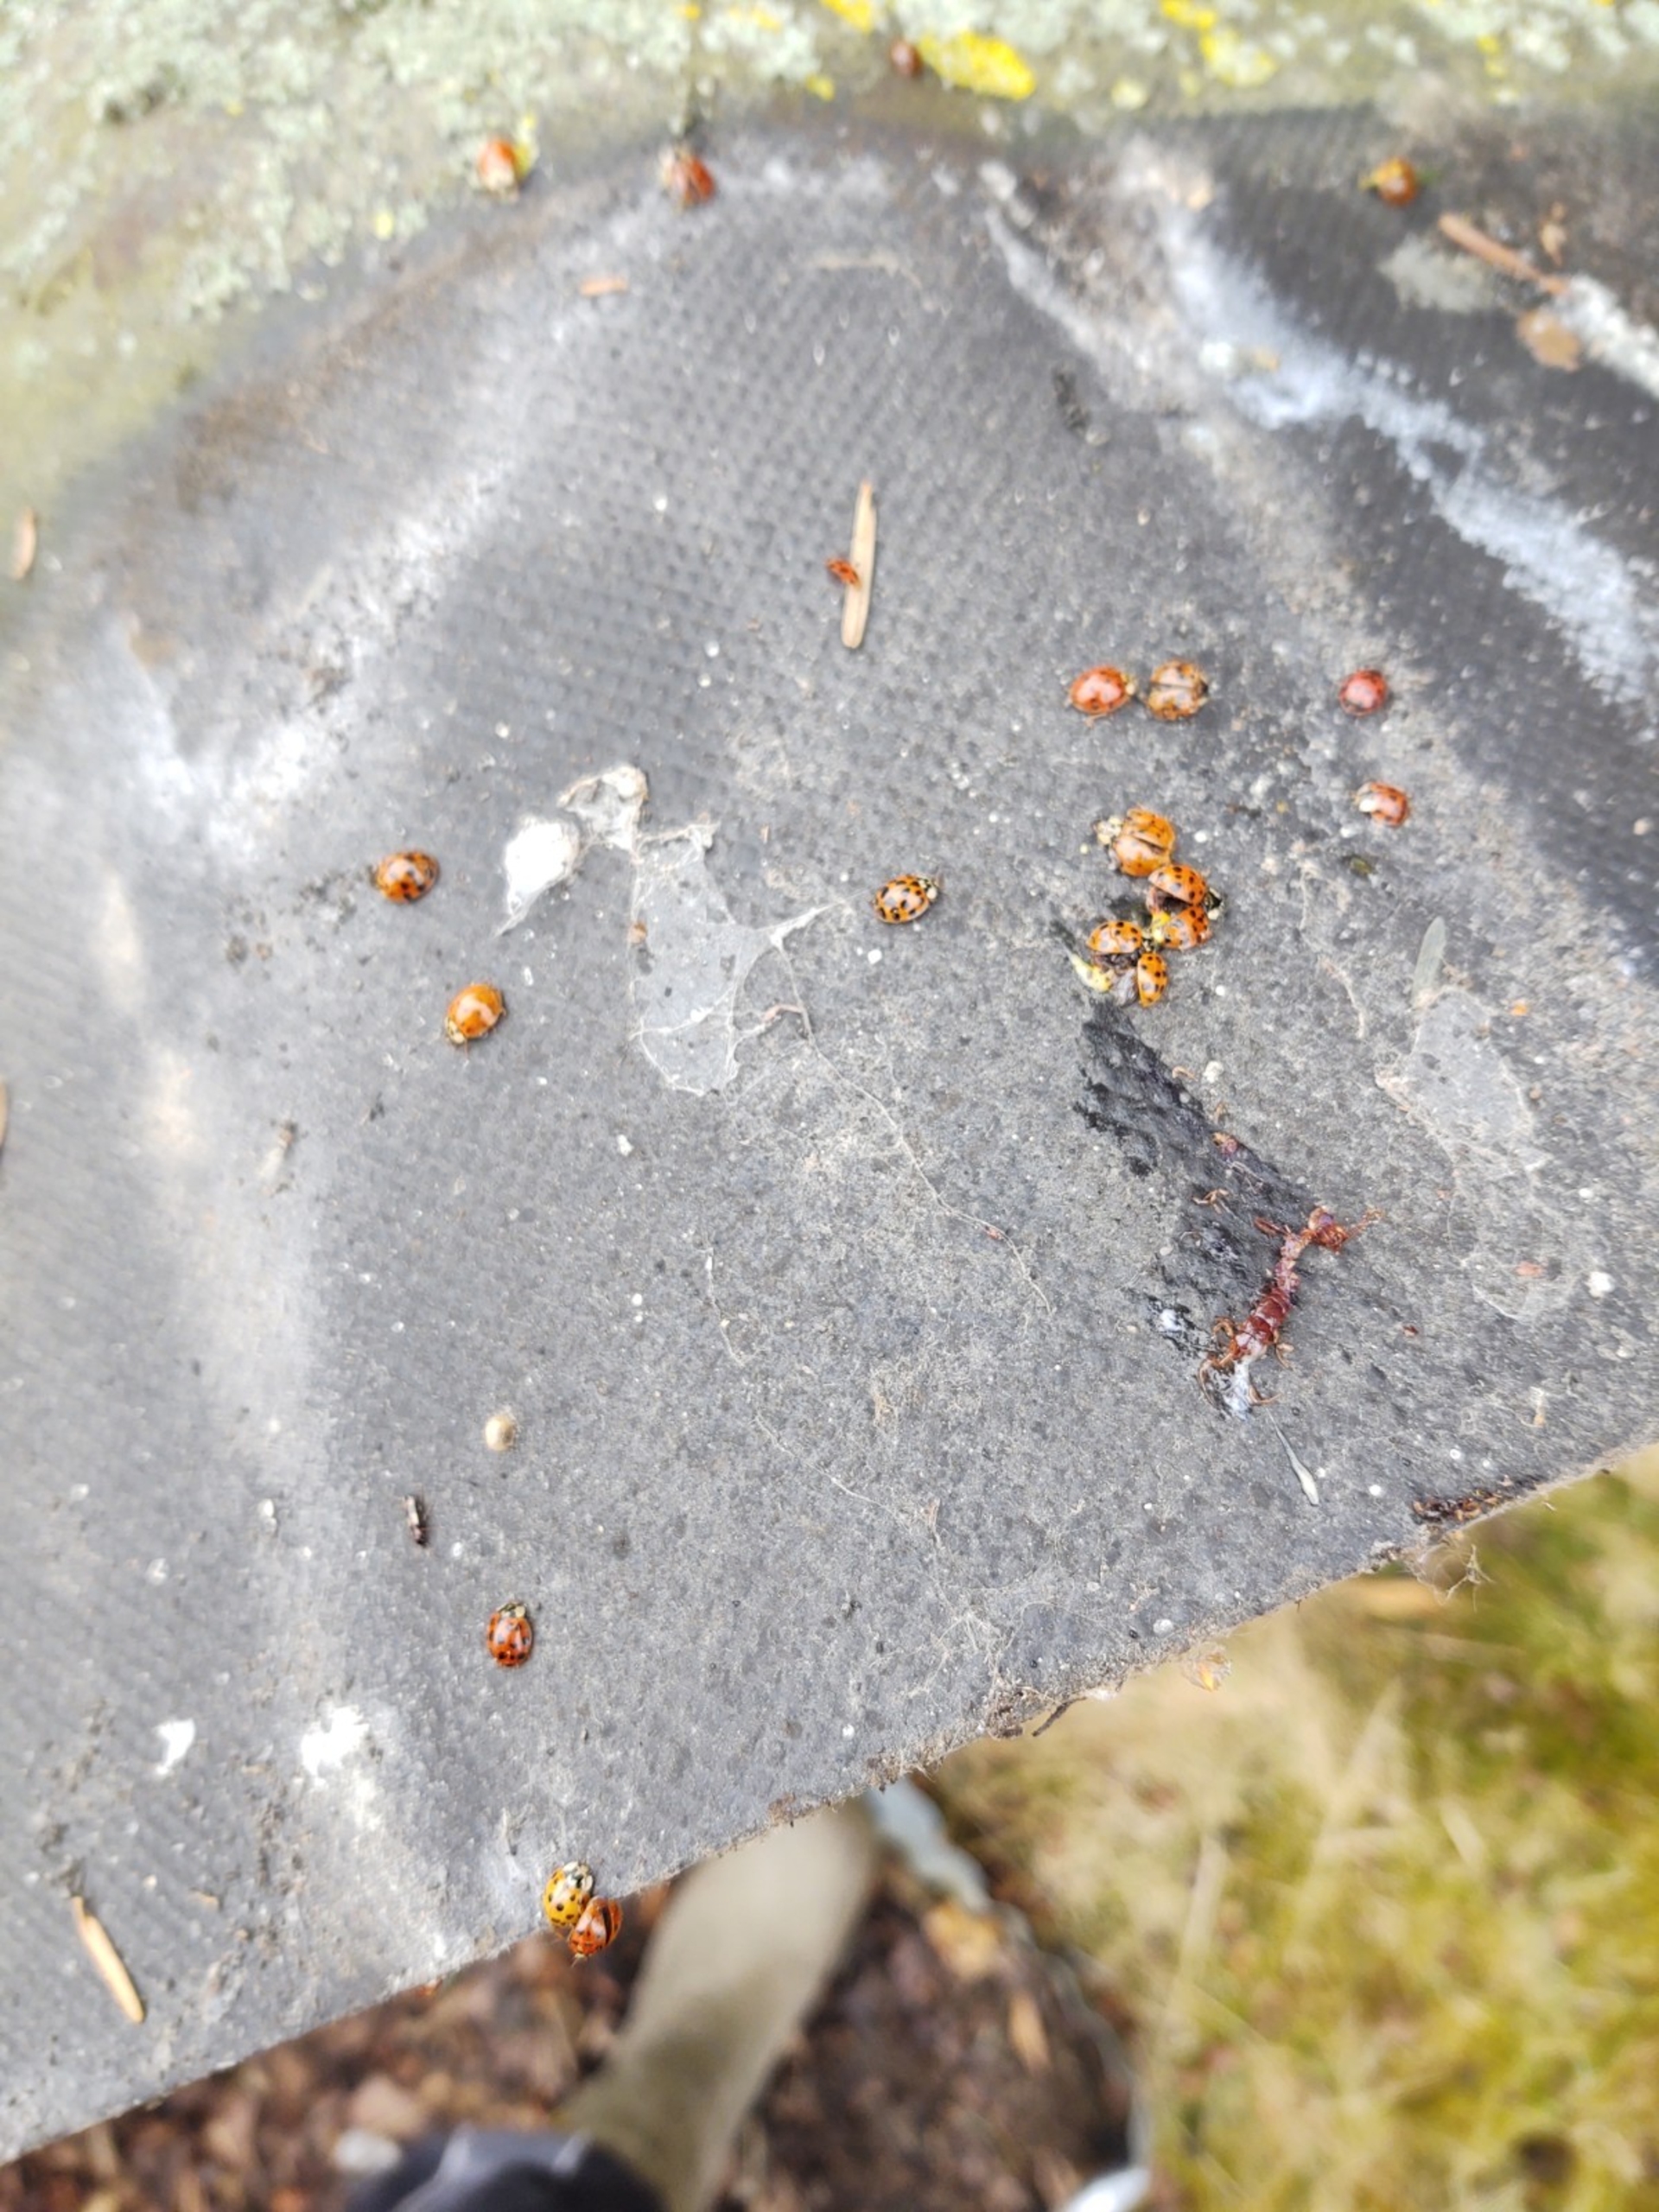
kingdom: Animalia
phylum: Arthropoda
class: Insecta
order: Coleoptera
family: Coccinellidae
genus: Harmonia
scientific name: Harmonia axyridis
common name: Harlekinmariehøne
